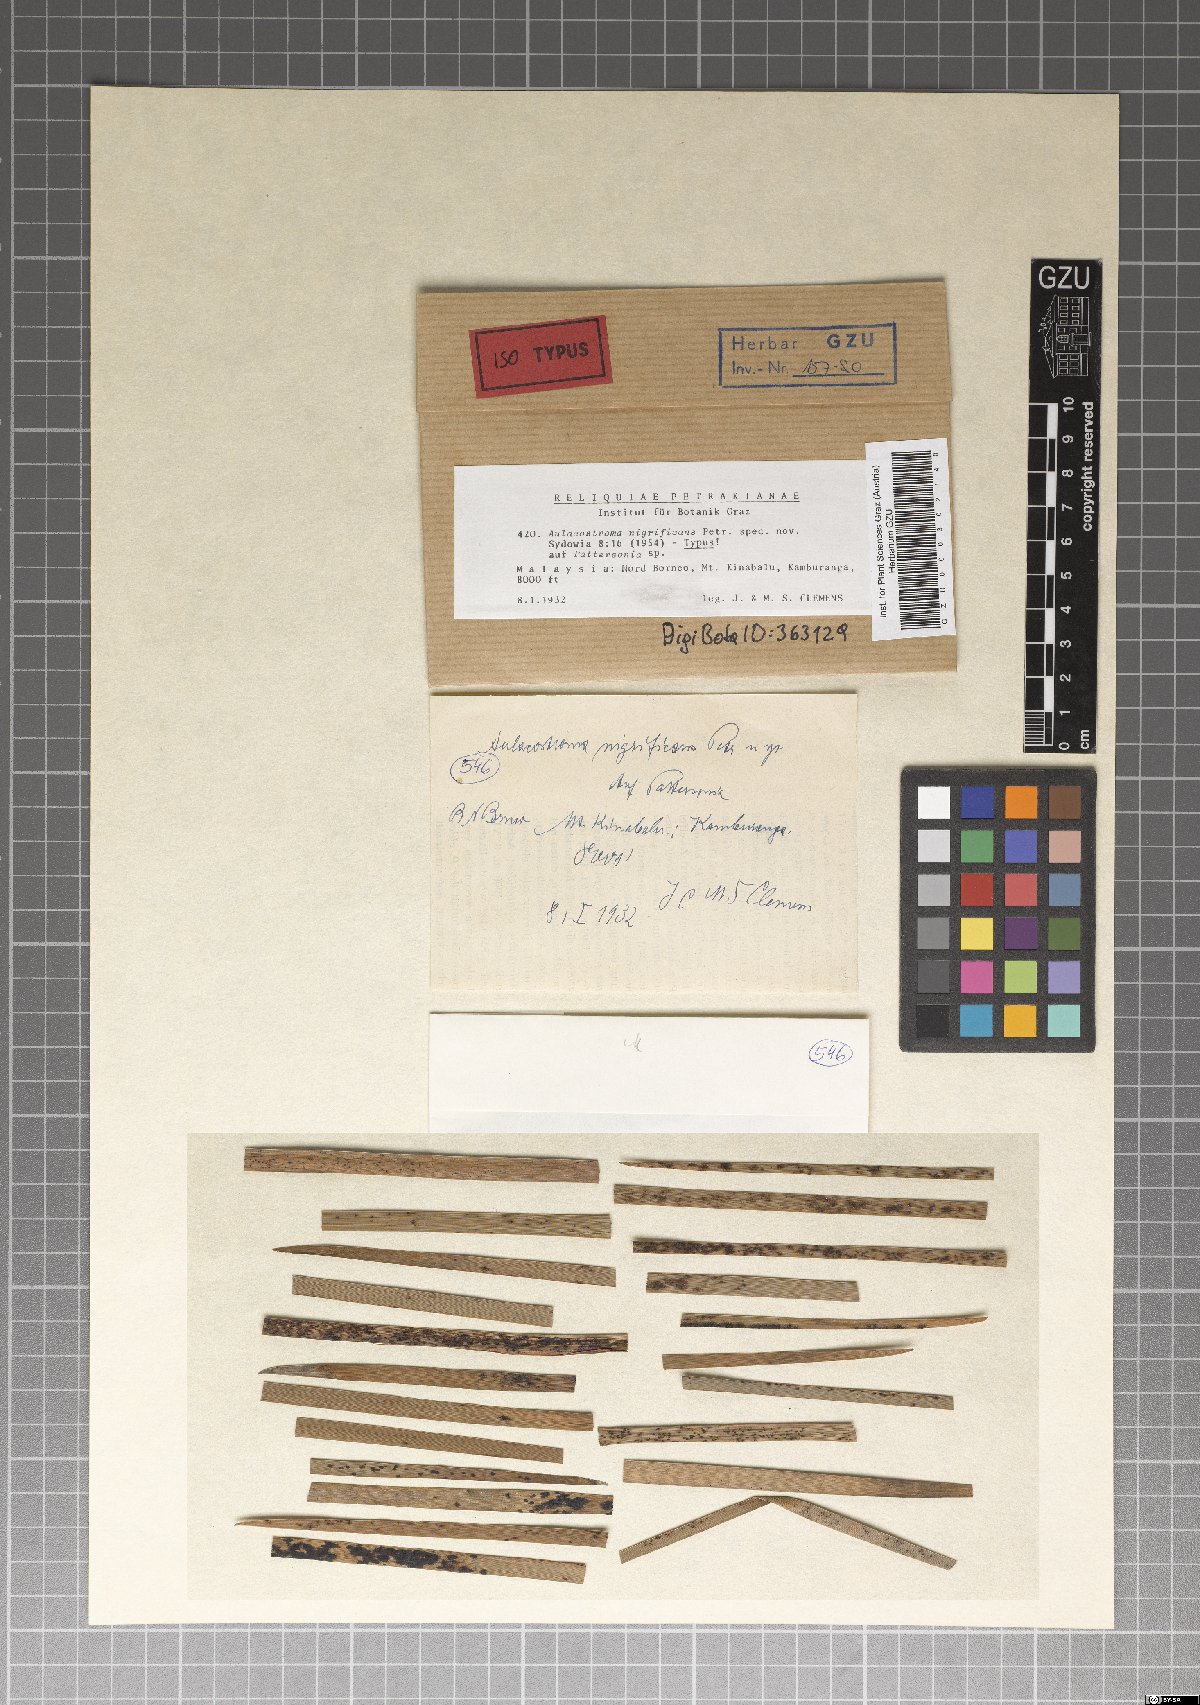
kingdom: Fungi
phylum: Ascomycota
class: Dothideomycetes
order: Asterinales
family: Parmulariaceae
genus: Aulacostroma
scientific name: Aulacostroma nigrificans
